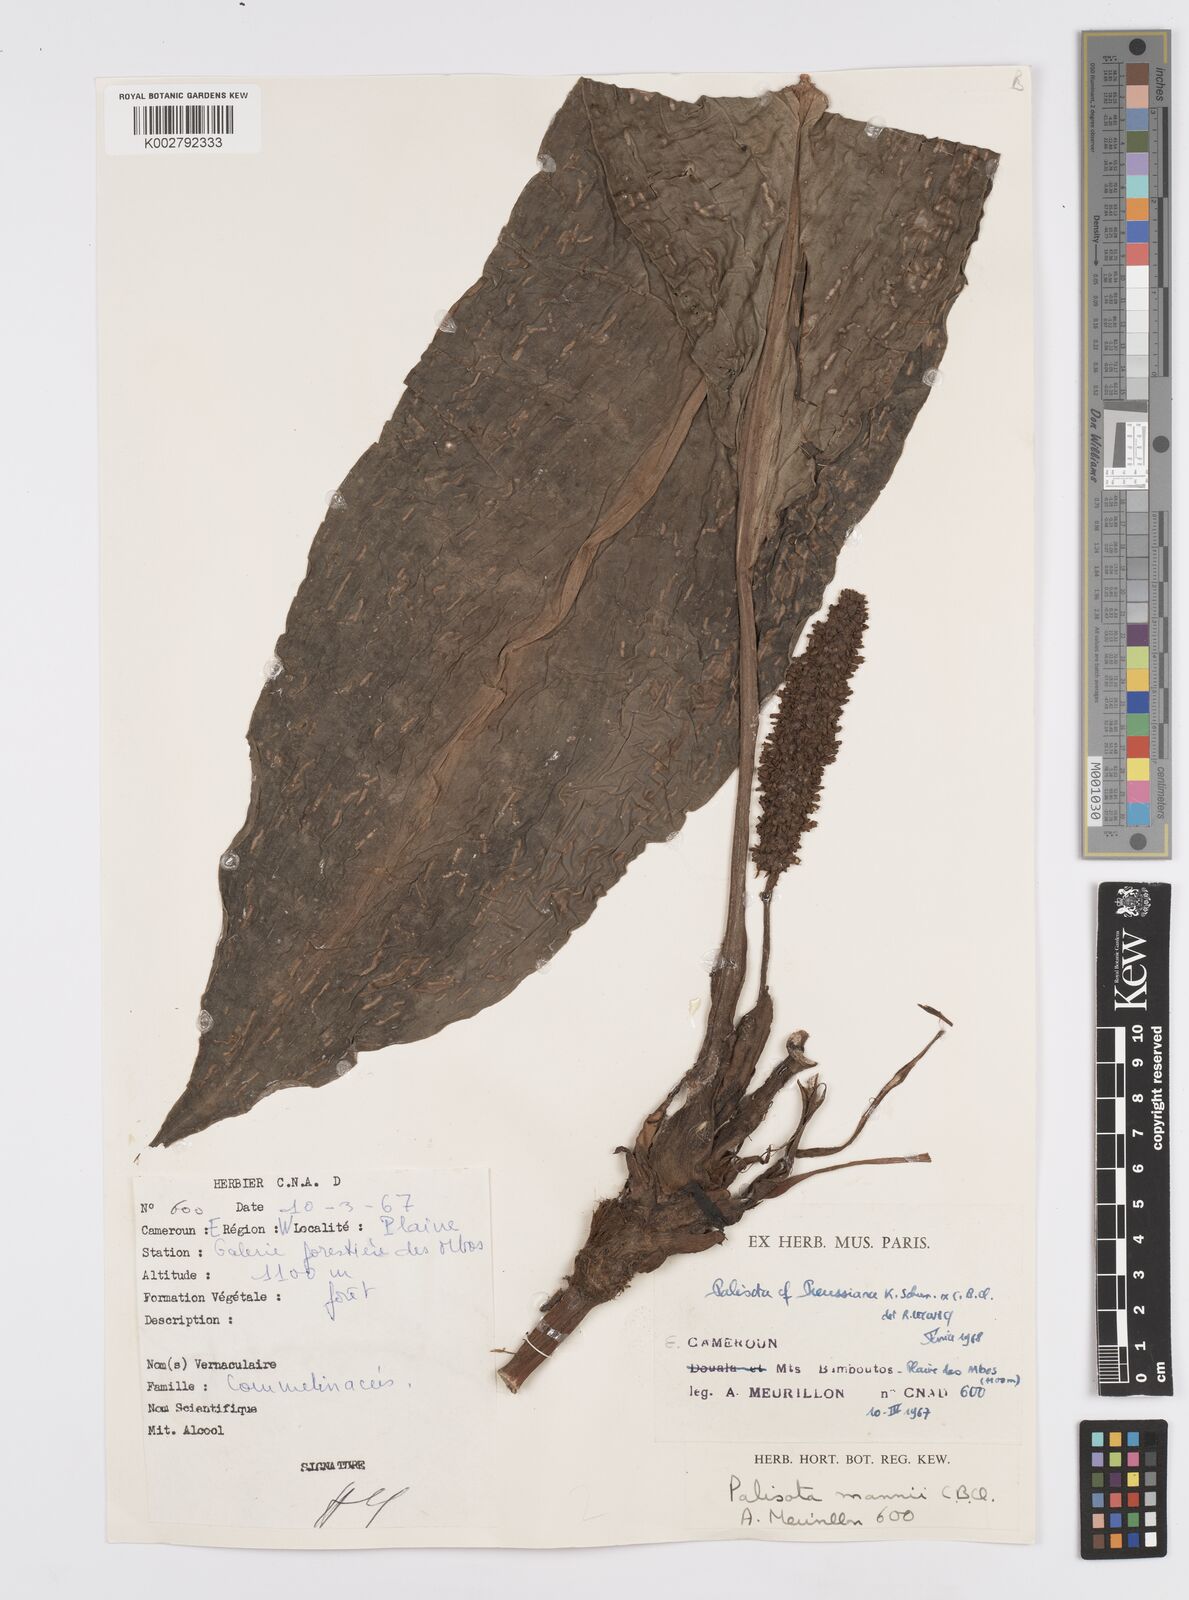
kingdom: Plantae
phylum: Tracheophyta
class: Liliopsida
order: Commelinales
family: Commelinaceae
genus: Palisota
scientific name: Palisota mannii
